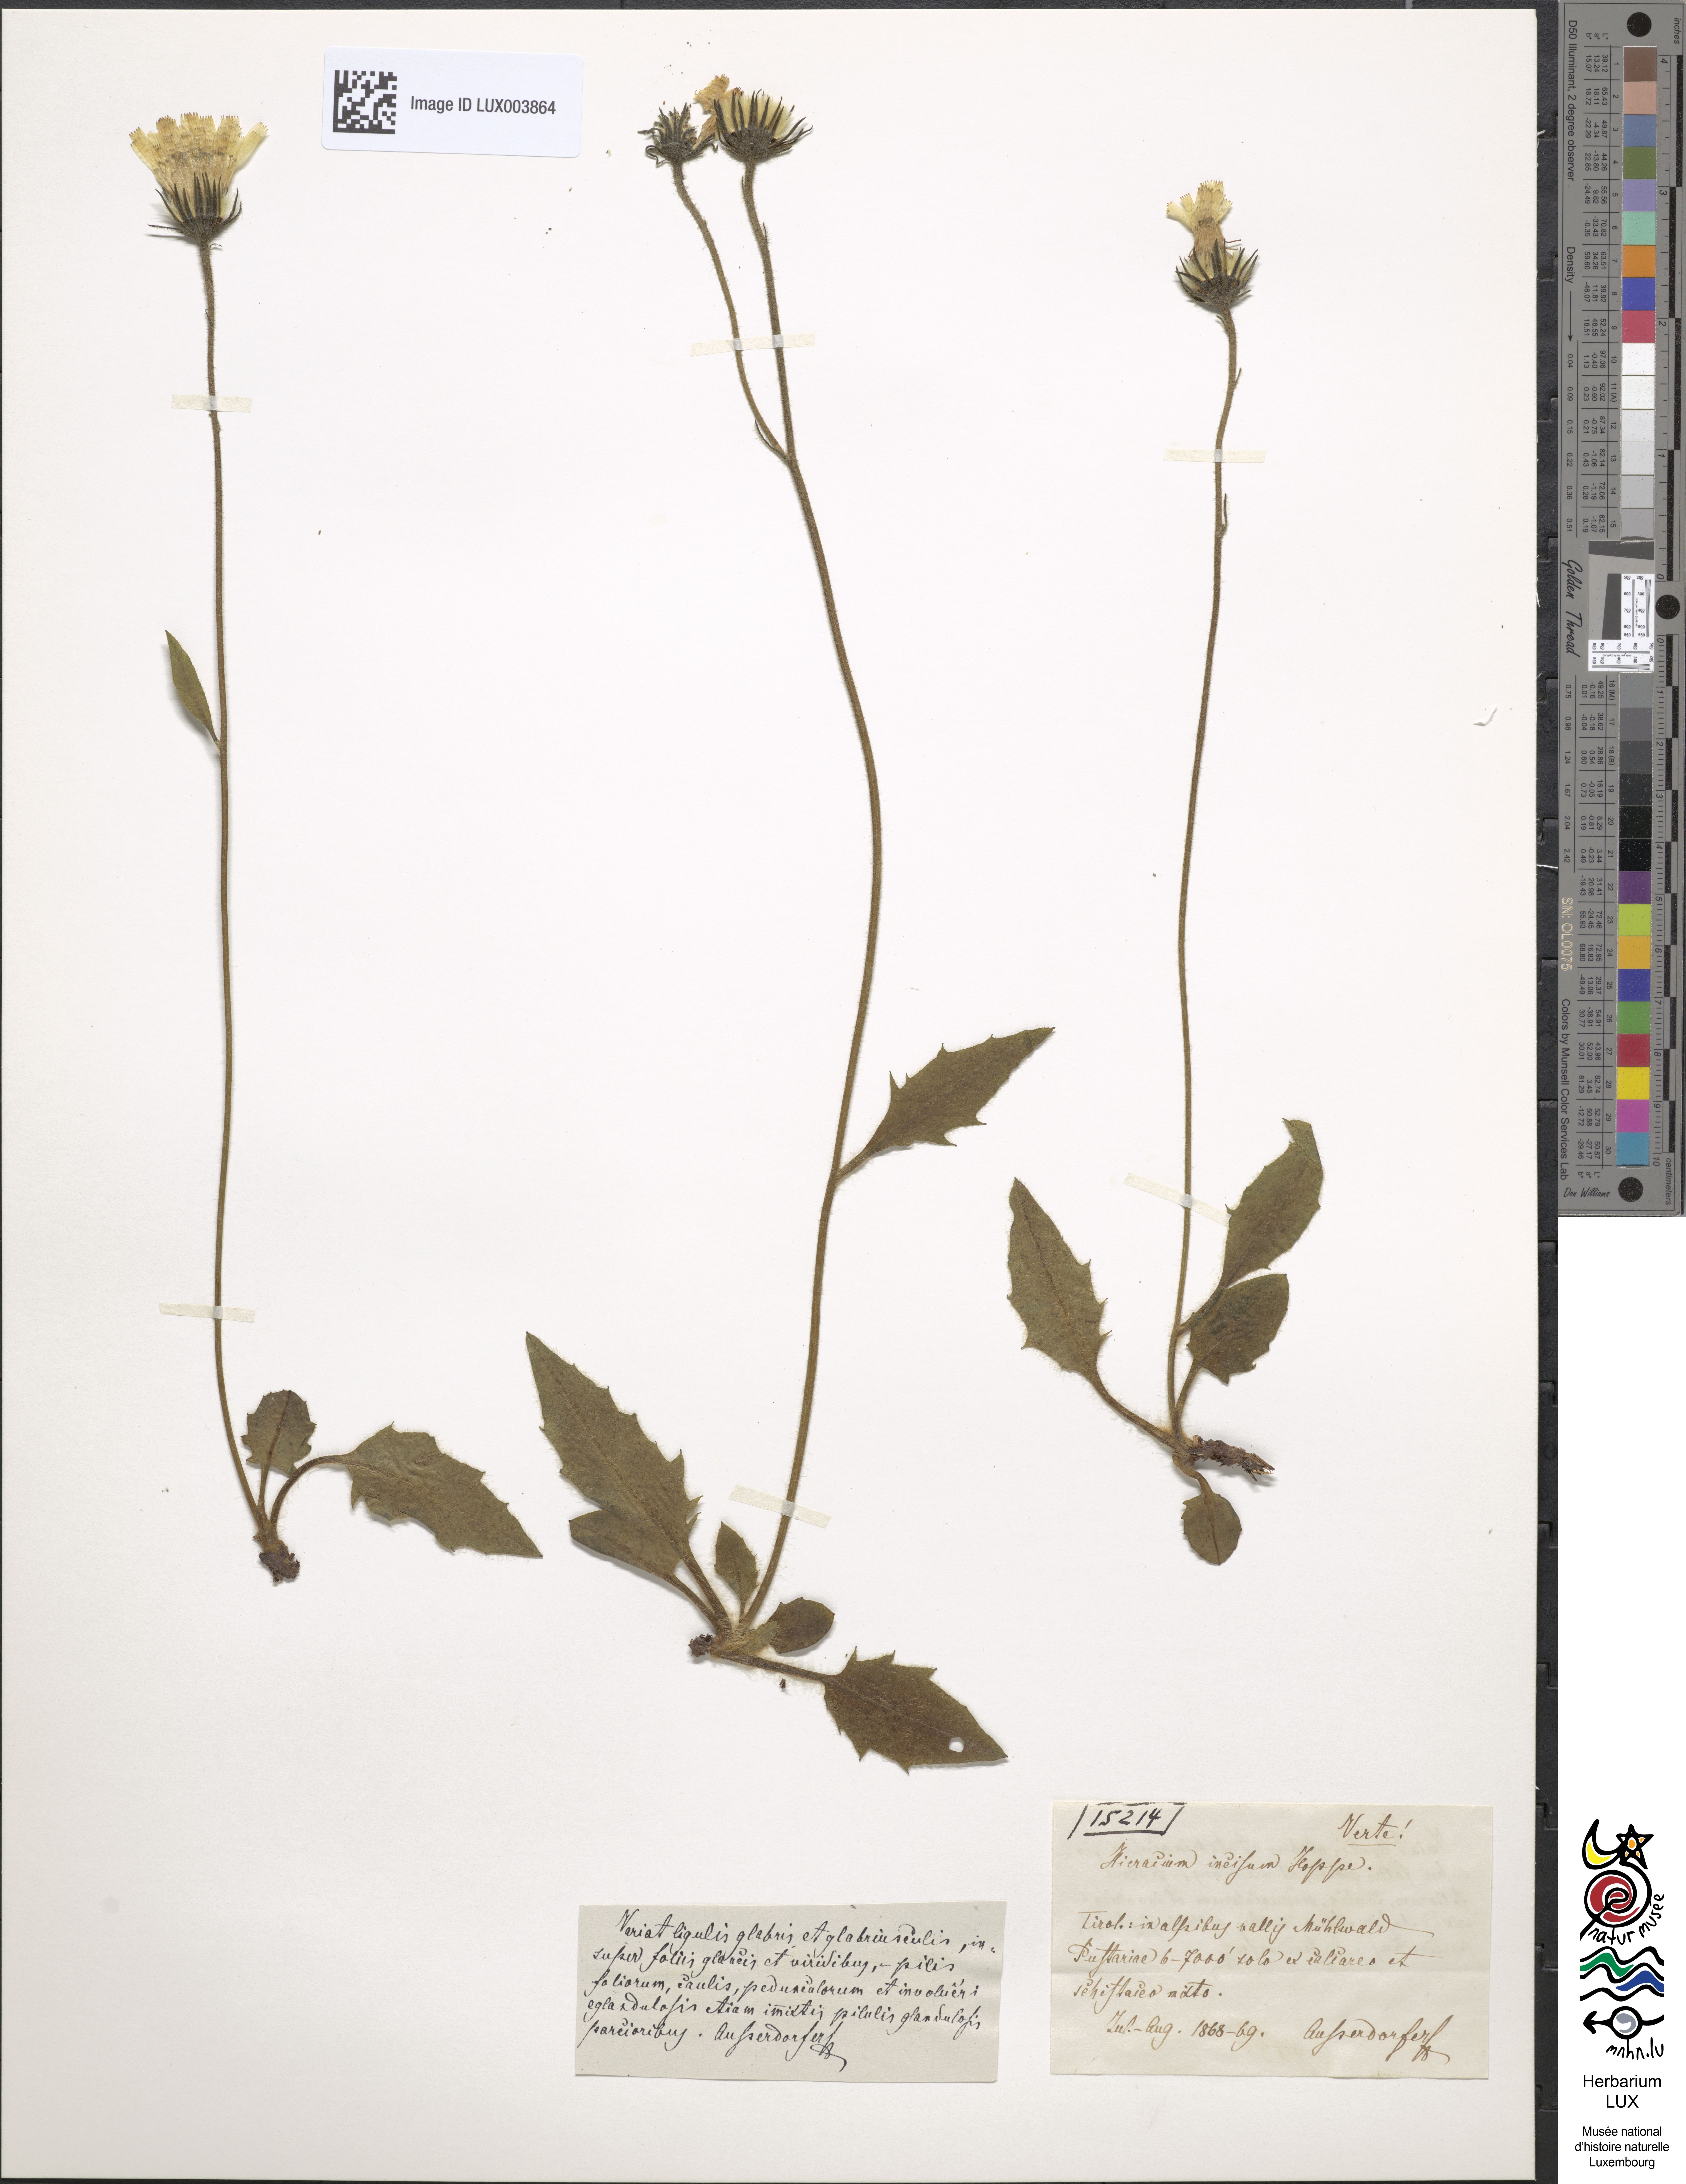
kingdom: Plantae
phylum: Tracheophyta
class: Magnoliopsida
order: Asterales
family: Asteraceae
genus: Hieracium
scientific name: Hieracium pallescens
